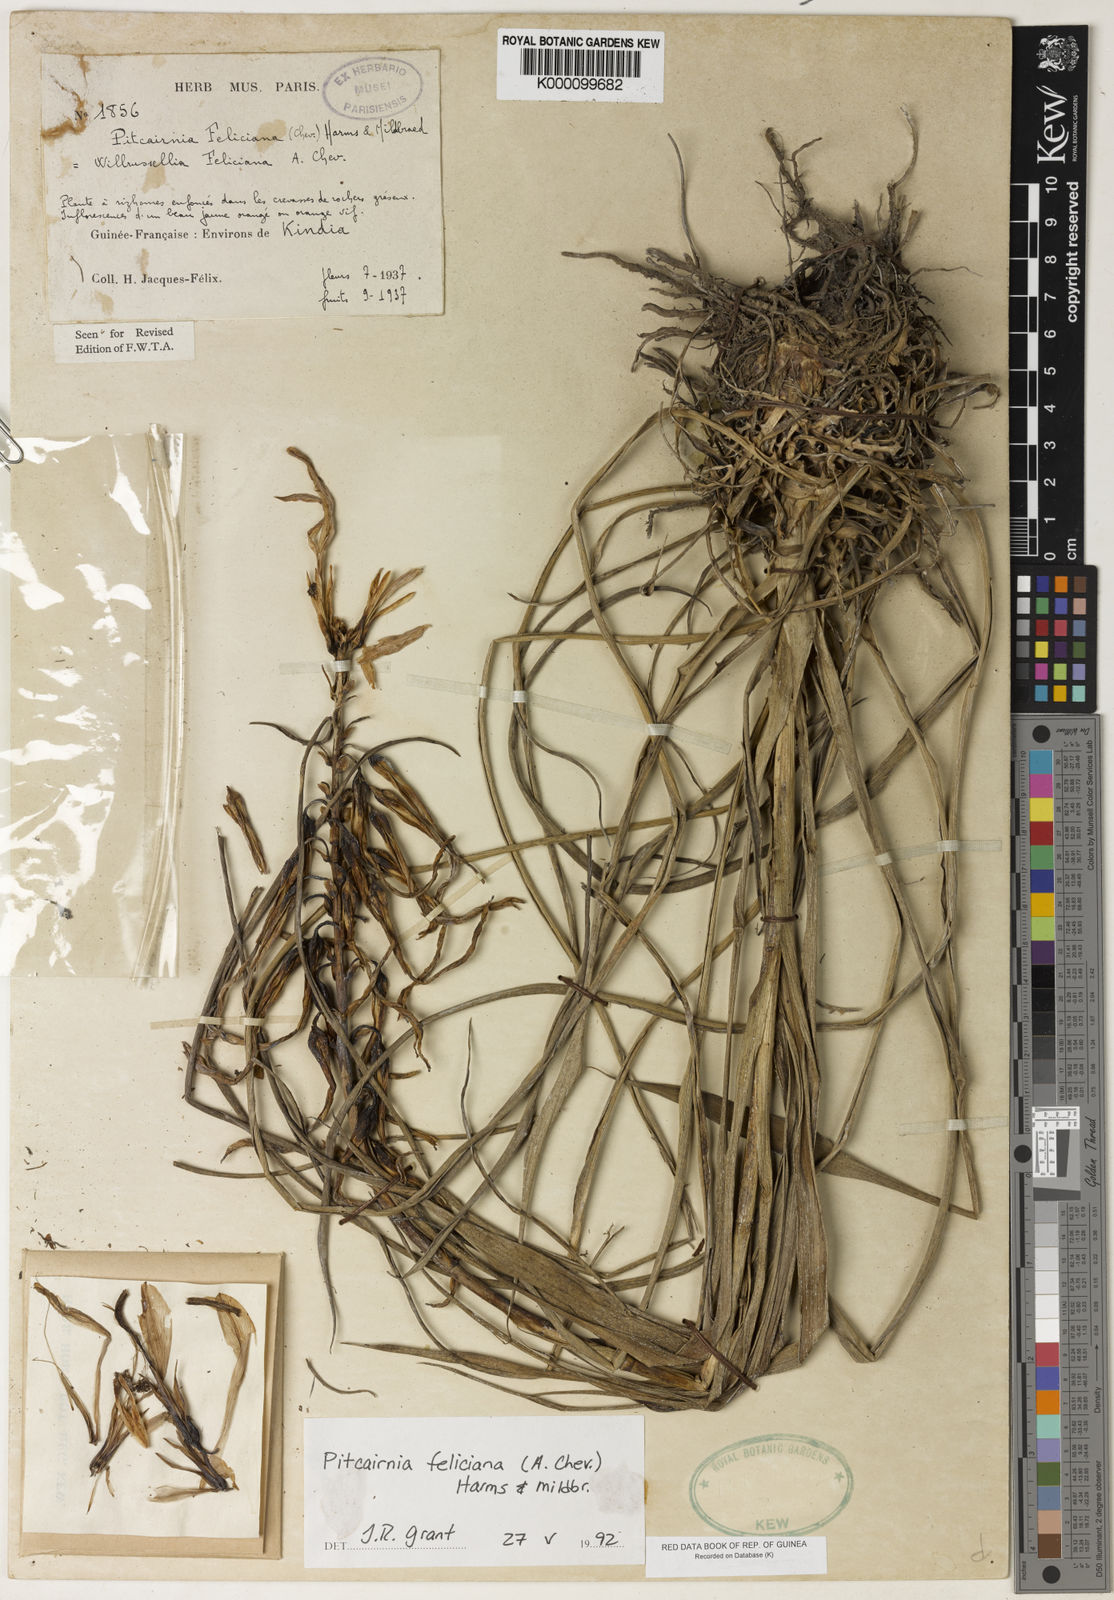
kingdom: Plantae
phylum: Tracheophyta
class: Liliopsida
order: Poales
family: Bromeliaceae
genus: Pitcairnia
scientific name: Pitcairnia feliciana
